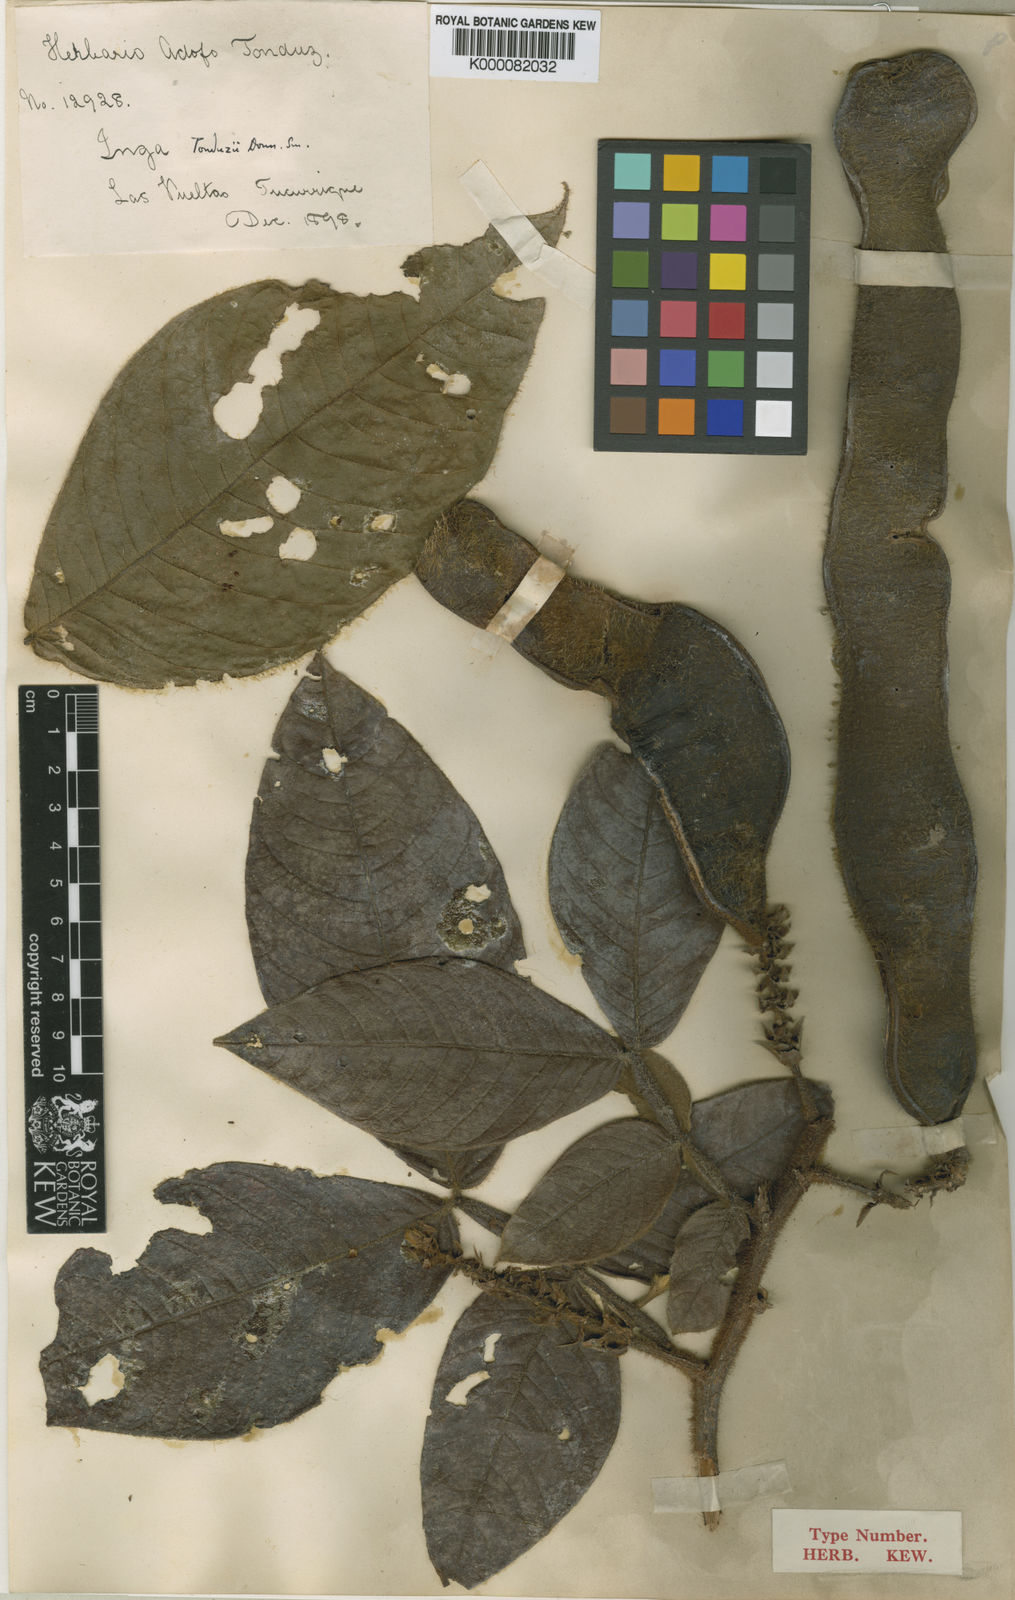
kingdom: Plantae
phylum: Tracheophyta
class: Magnoliopsida
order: Fabales
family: Fabaceae
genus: Inga
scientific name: Inga tonduzii
